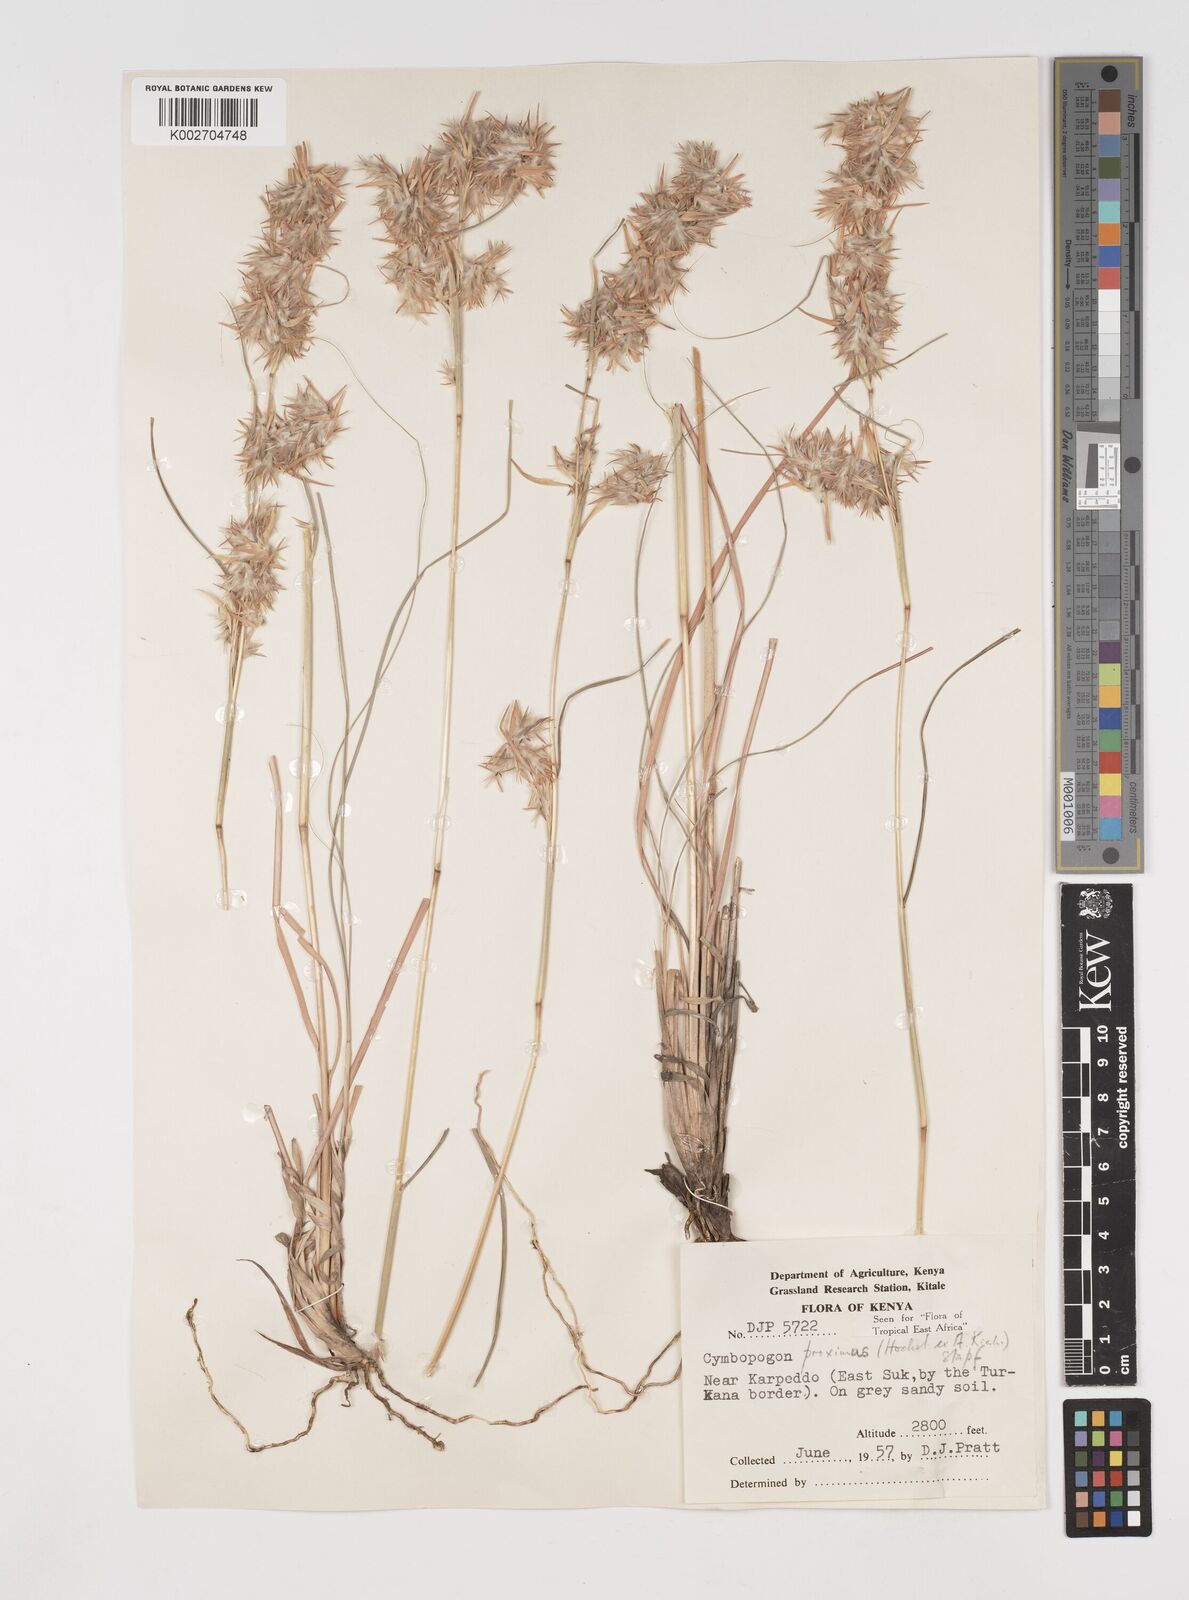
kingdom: Plantae
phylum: Tracheophyta
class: Liliopsida
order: Poales
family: Poaceae
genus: Cymbopogon
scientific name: Cymbopogon schoenanthus
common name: Geranium grass
